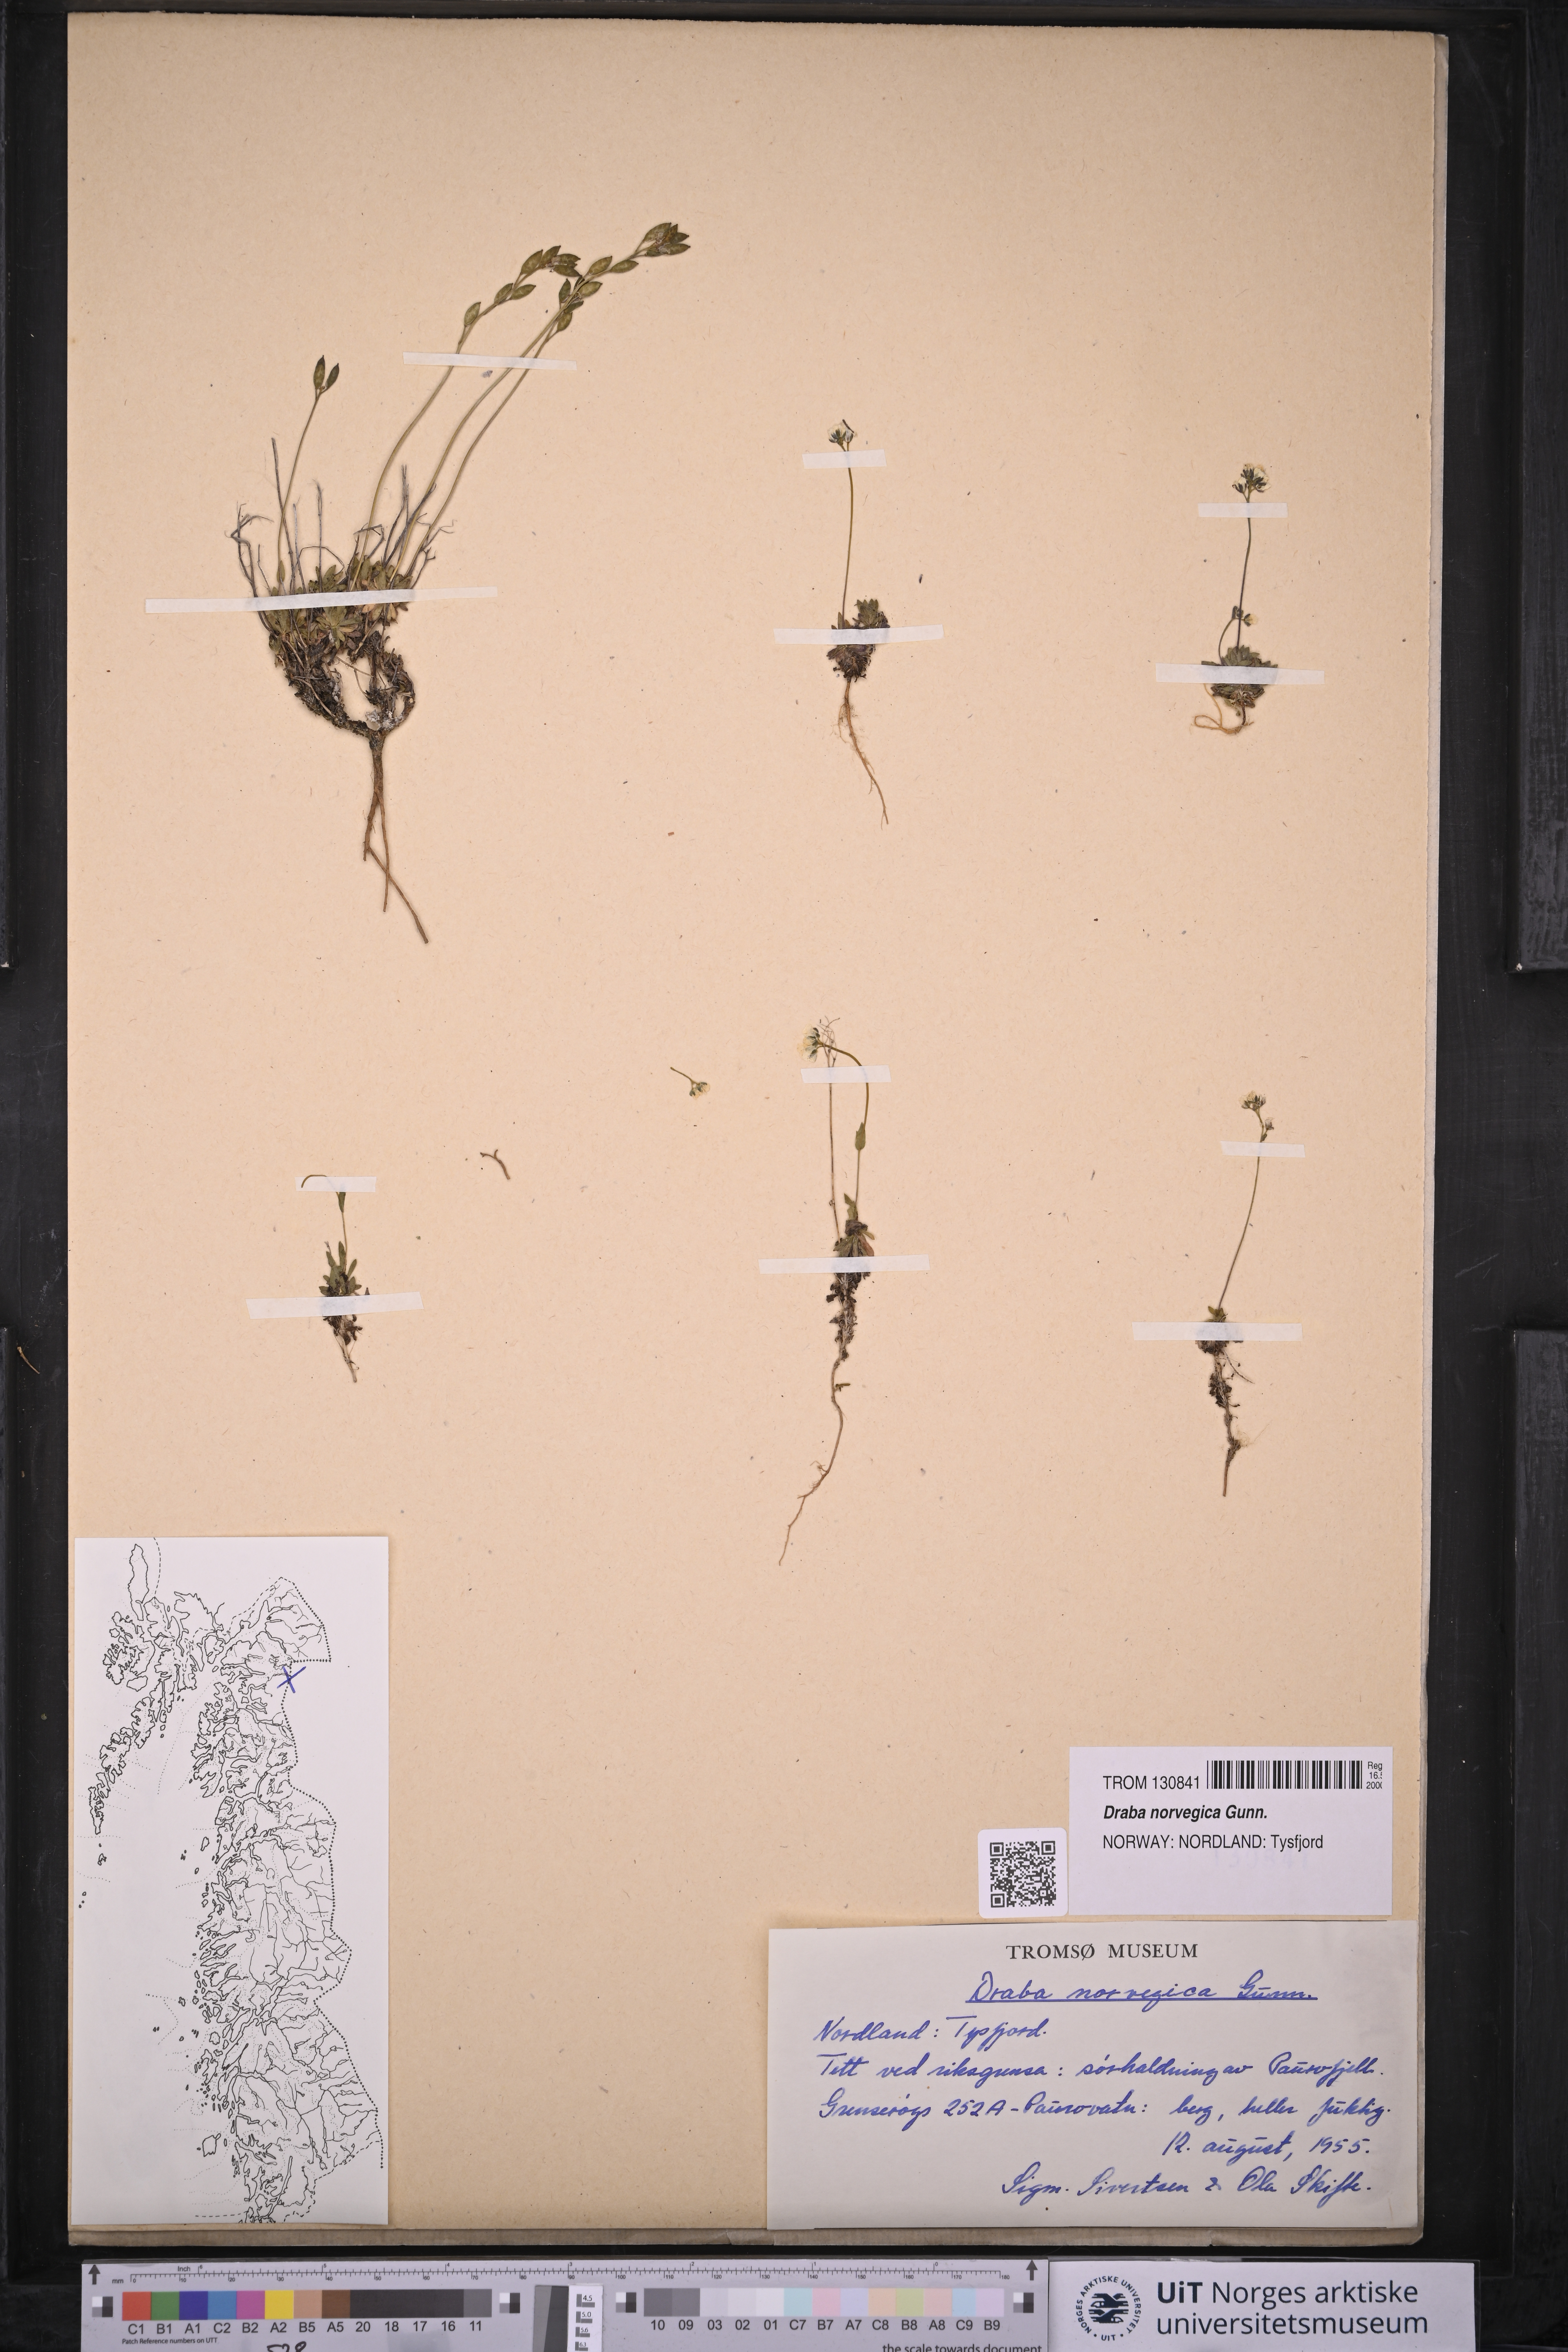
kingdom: Plantae
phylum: Tracheophyta
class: Magnoliopsida
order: Brassicales
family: Brassicaceae
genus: Draba
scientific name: Draba norvegica
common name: Rock whitlowgrass
